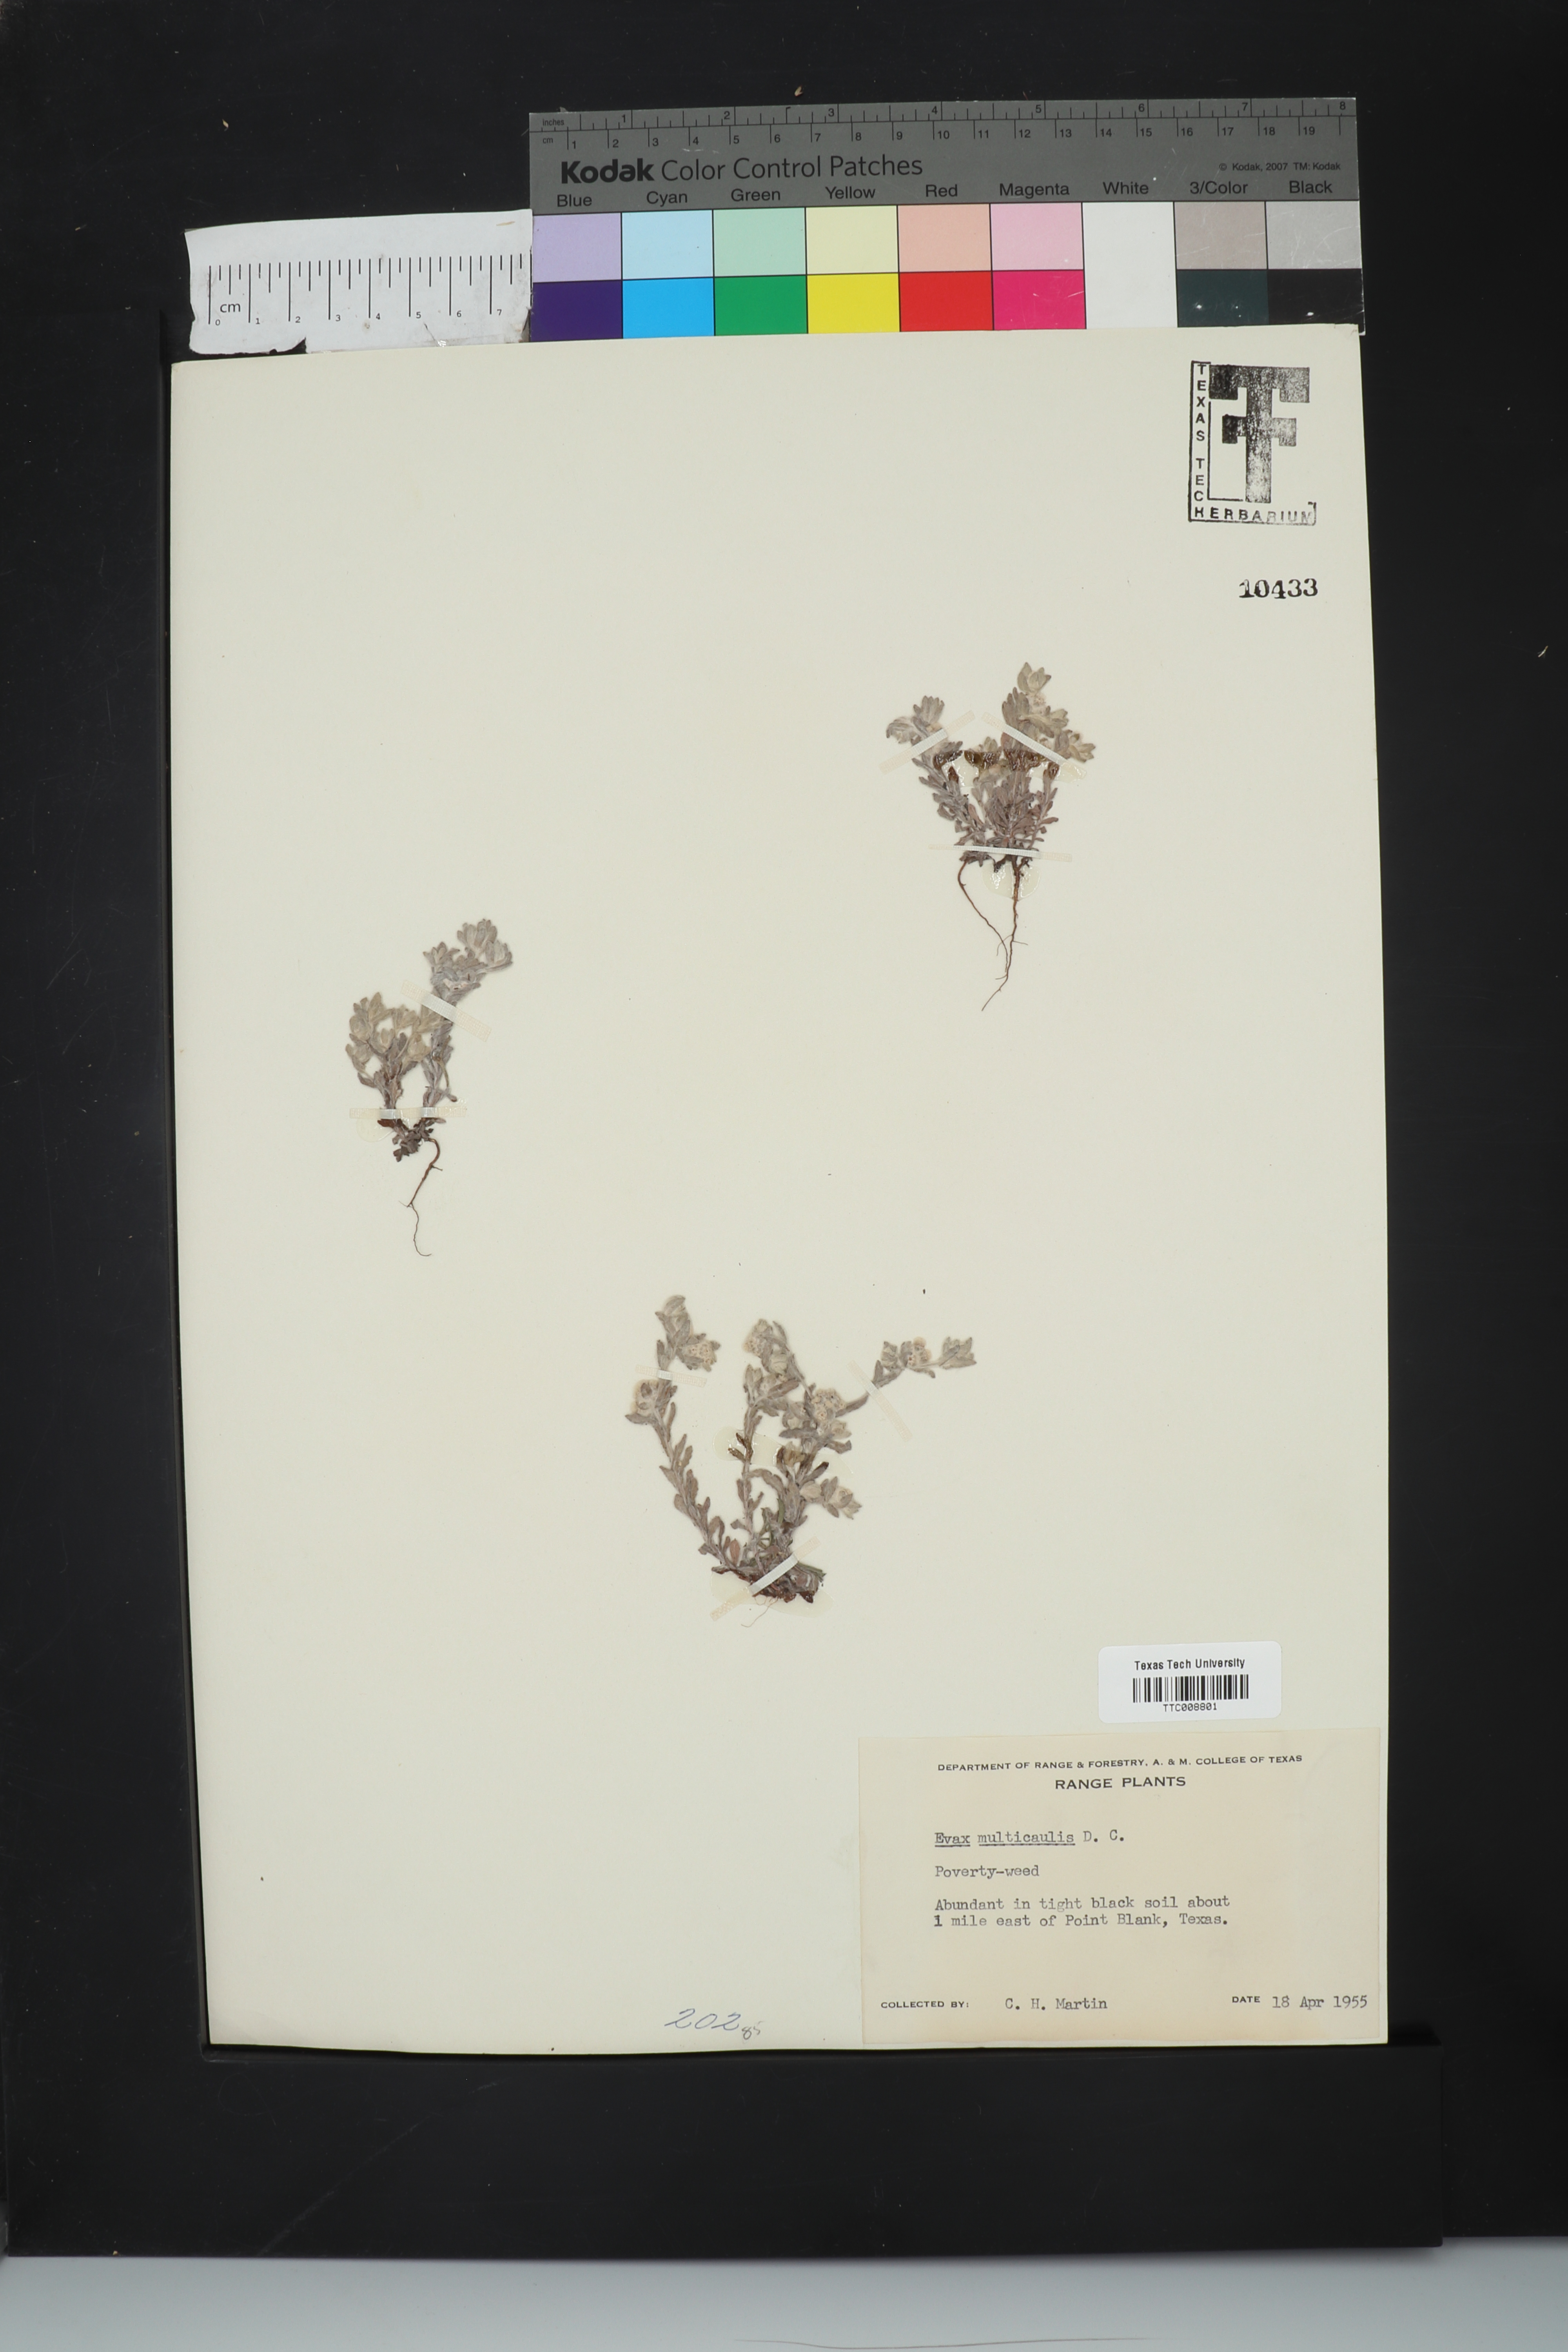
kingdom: Plantae
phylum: Tracheophyta
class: Magnoliopsida
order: Asterales
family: Asteraceae
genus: Diaperia
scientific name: Diaperia verna
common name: Many-stem rabbit-tobacco
